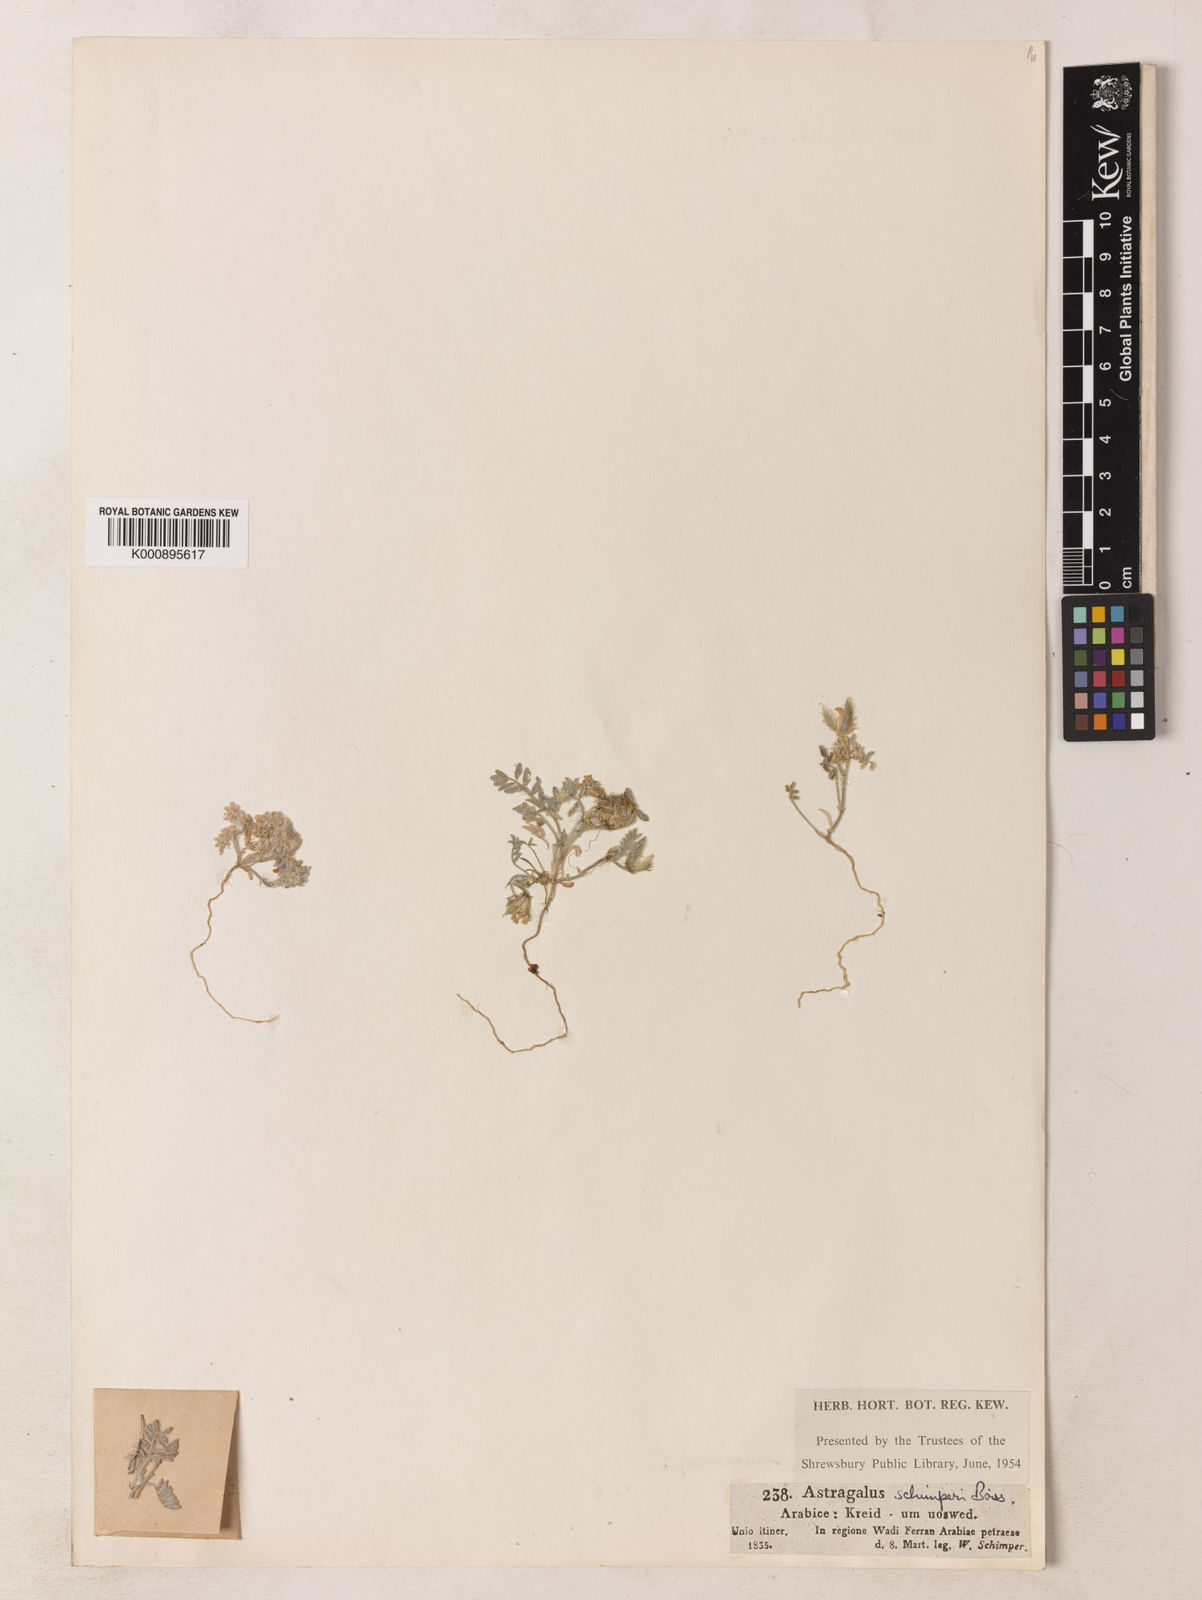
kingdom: Plantae
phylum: Tracheophyta
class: Magnoliopsida
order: Fabales
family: Fabaceae
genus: Astragalus
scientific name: Astragalus schimperi
